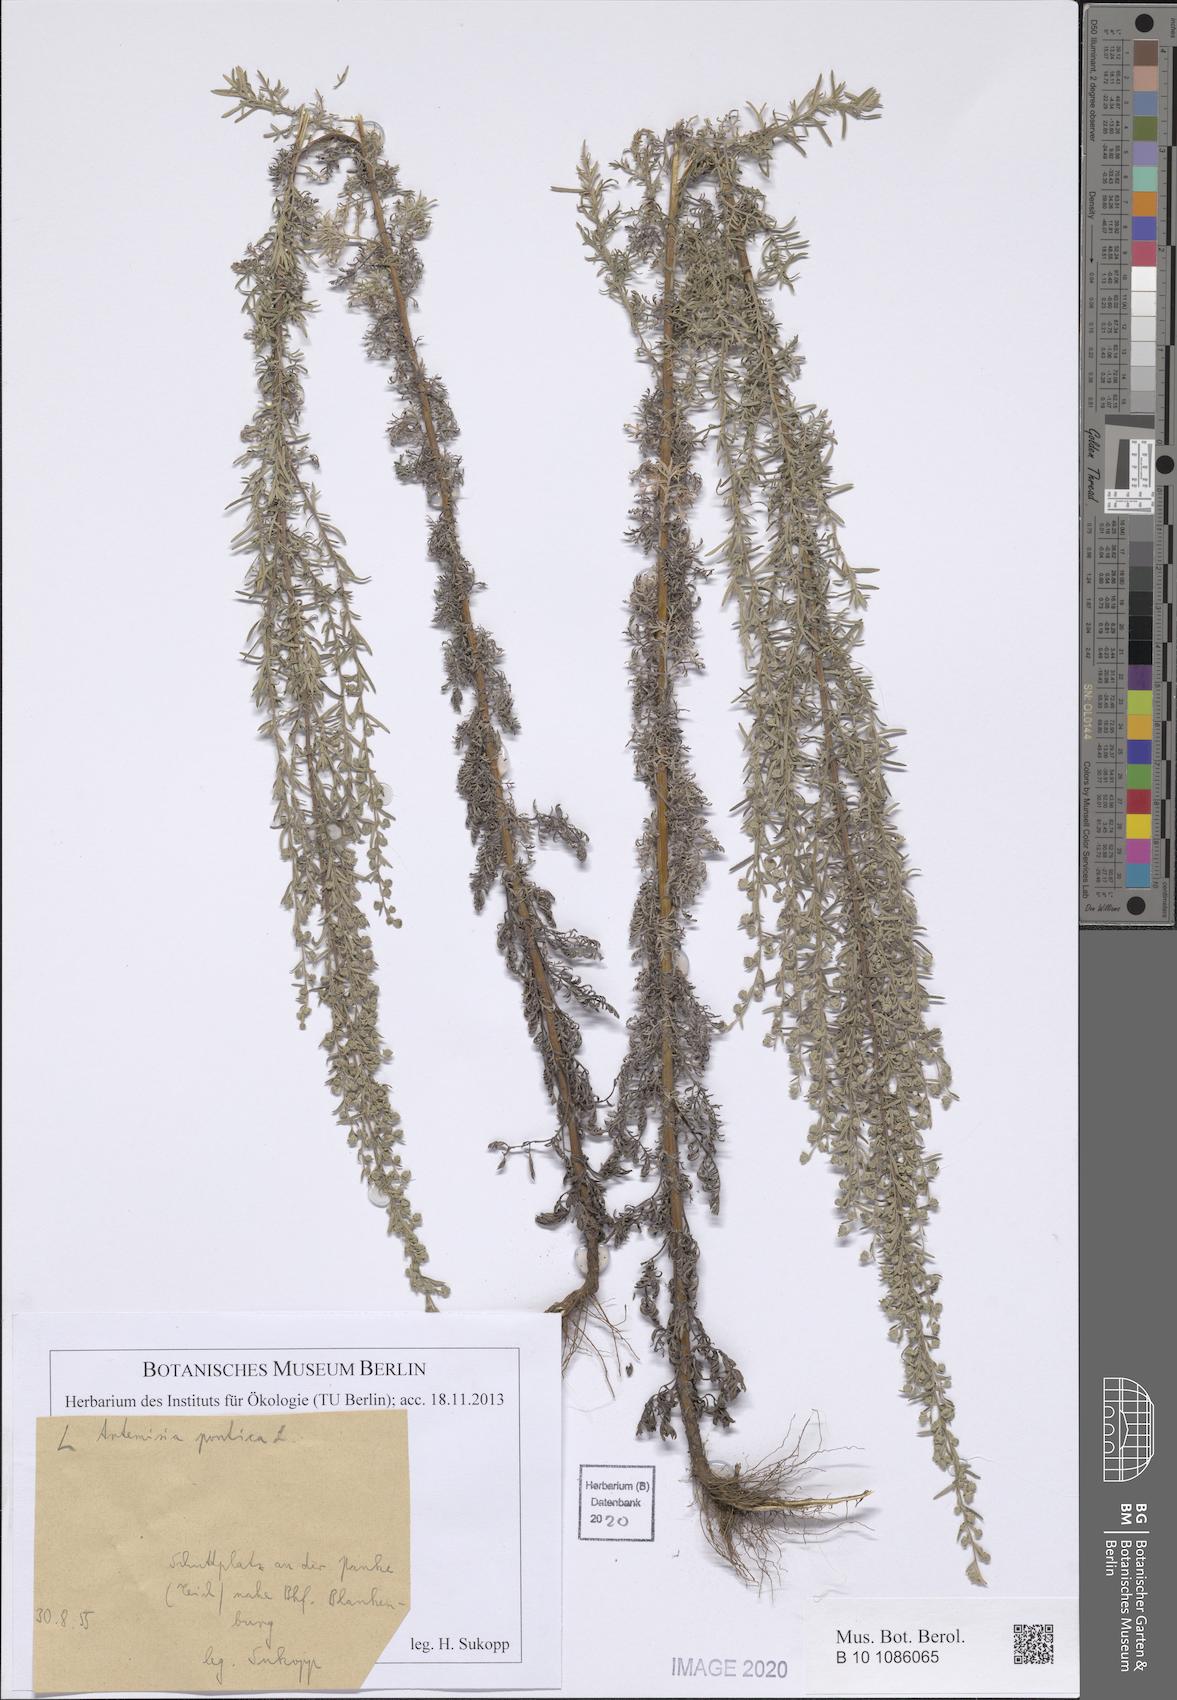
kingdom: Plantae
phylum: Tracheophyta
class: Magnoliopsida
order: Asterales
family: Asteraceae
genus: Artemisia
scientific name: Artemisia pontica
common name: Roman wormwood
